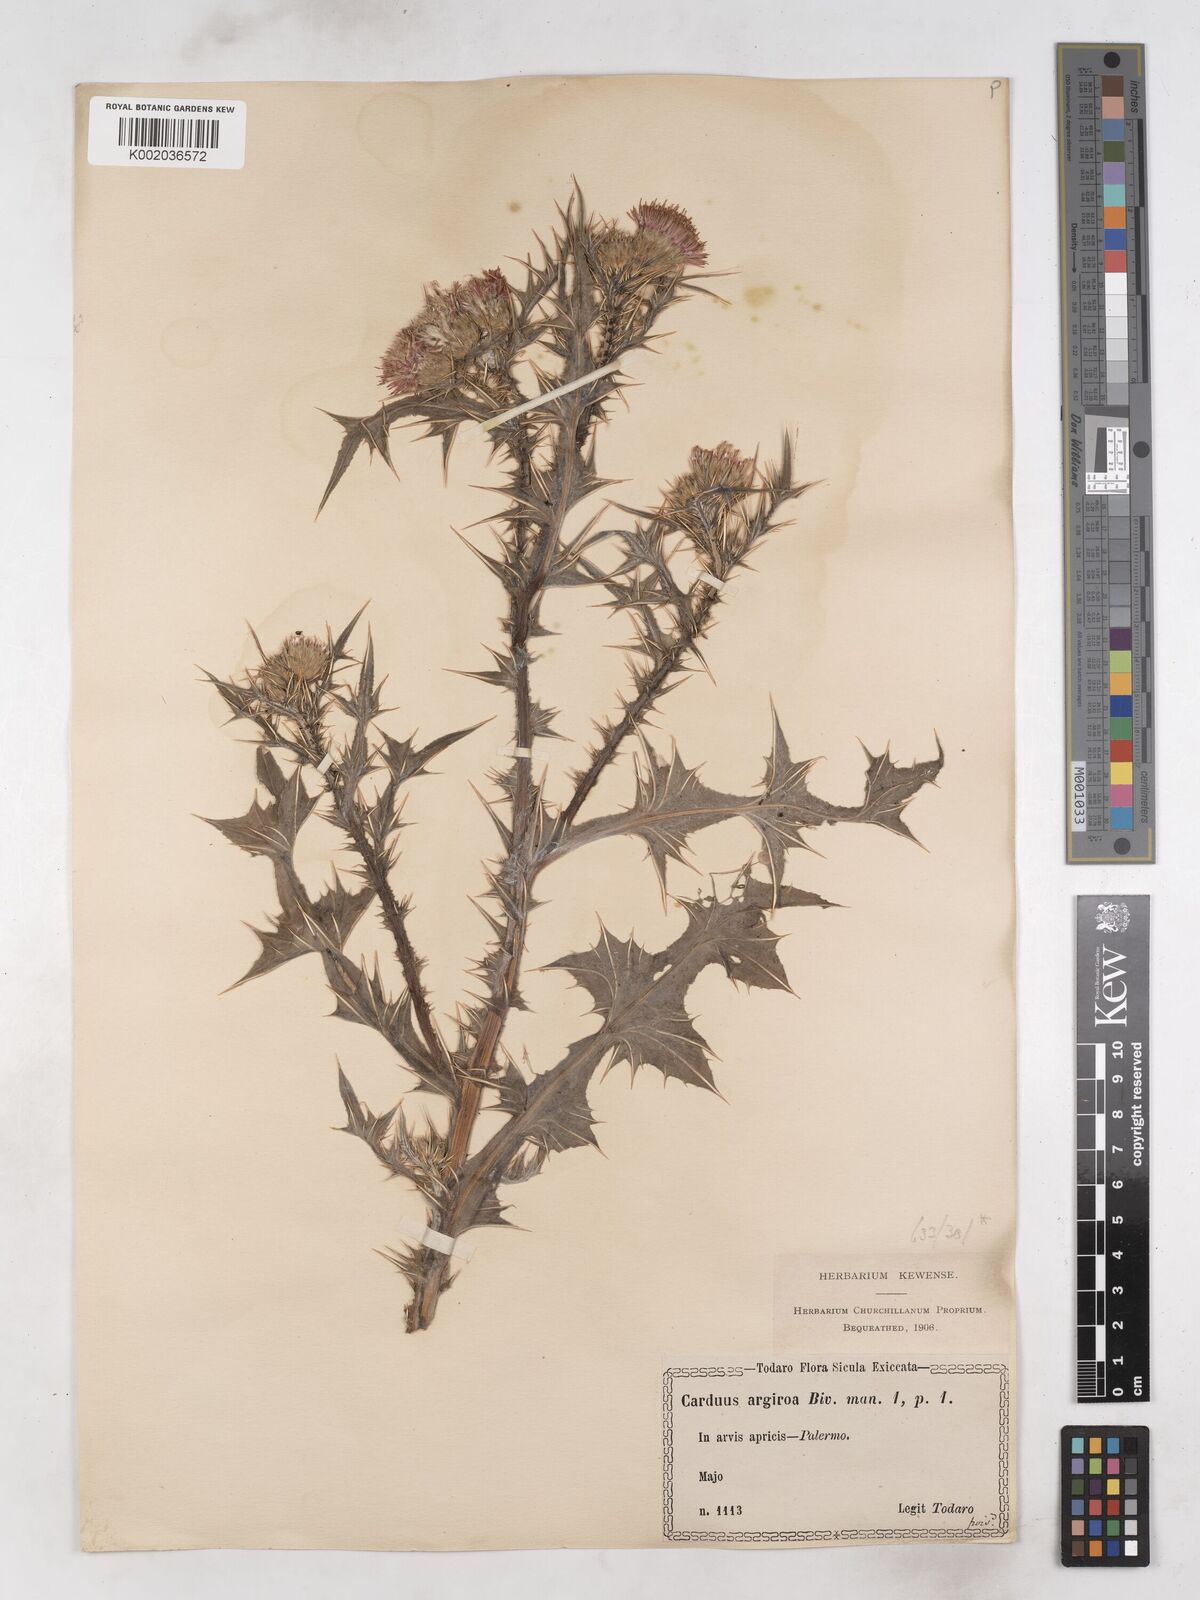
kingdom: Plantae
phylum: Tracheophyta
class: Magnoliopsida
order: Asterales
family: Asteraceae
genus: Carduus
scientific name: Carduus argyroa
